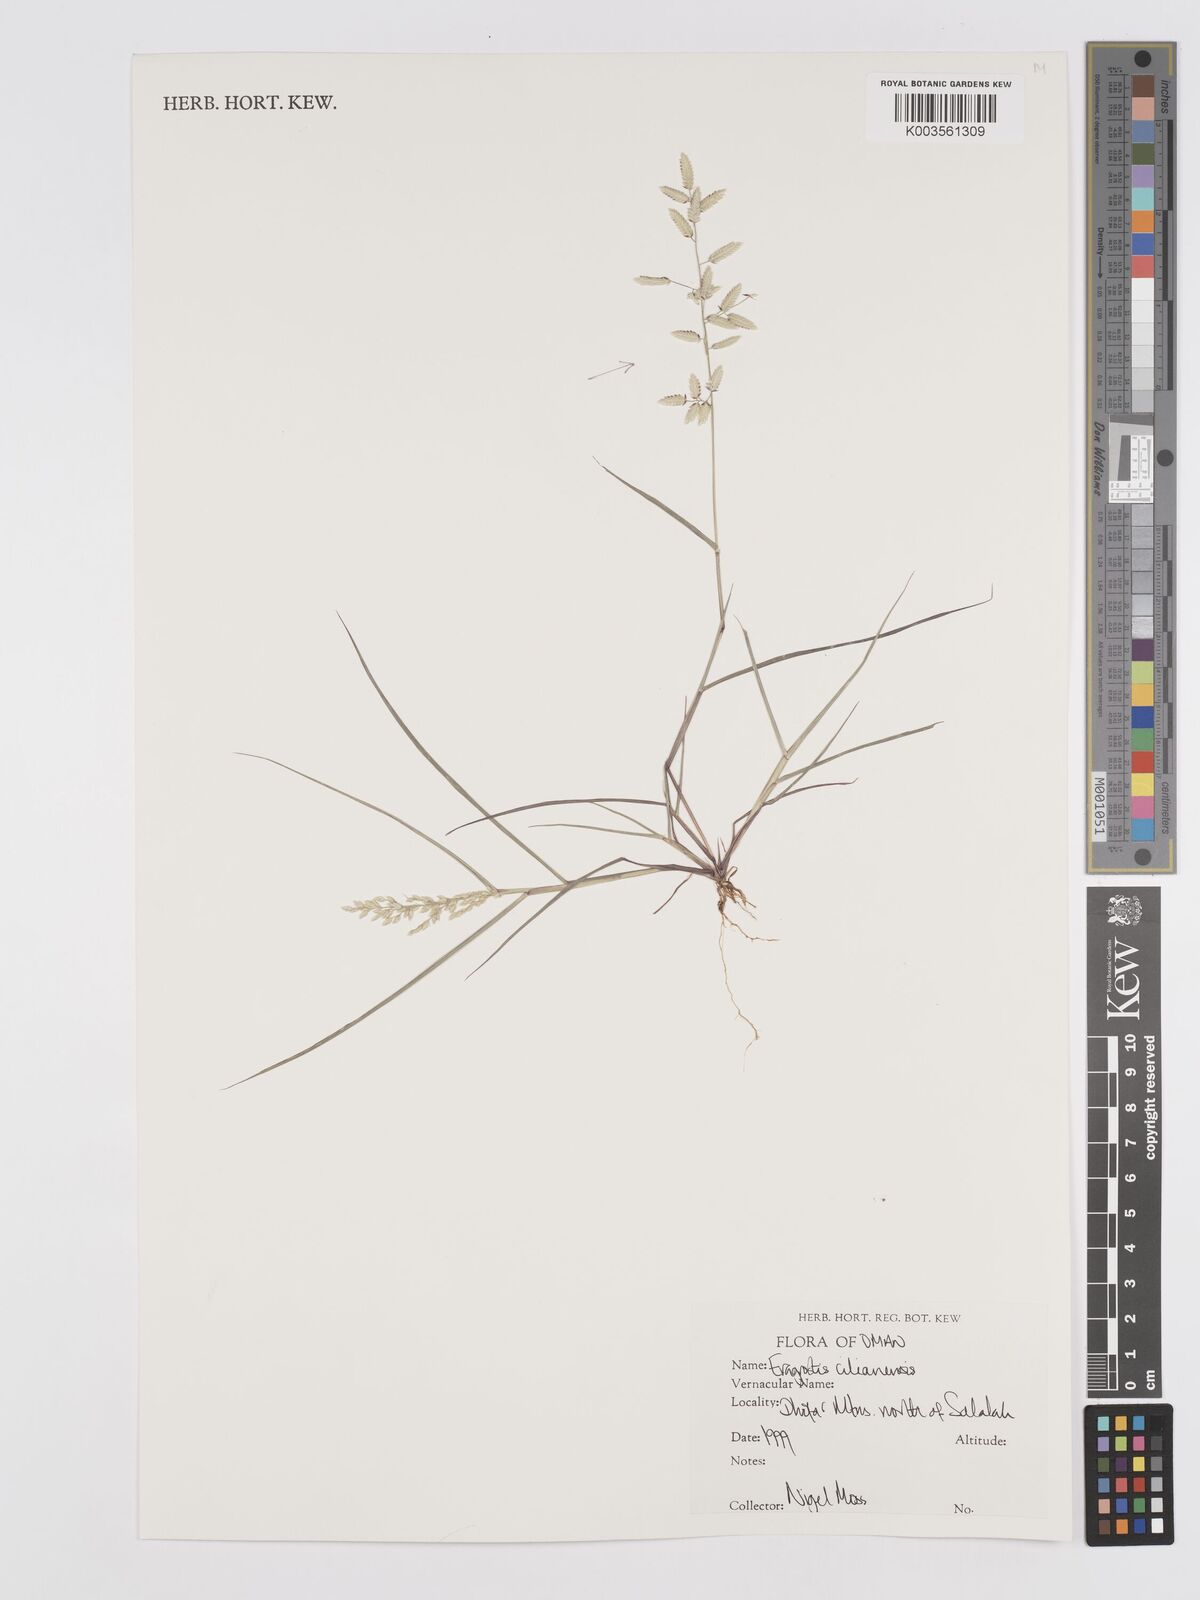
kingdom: Plantae
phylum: Tracheophyta
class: Liliopsida
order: Poales
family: Poaceae
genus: Eragrostis
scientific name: Eragrostis cilianensis
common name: Stinkgrass
